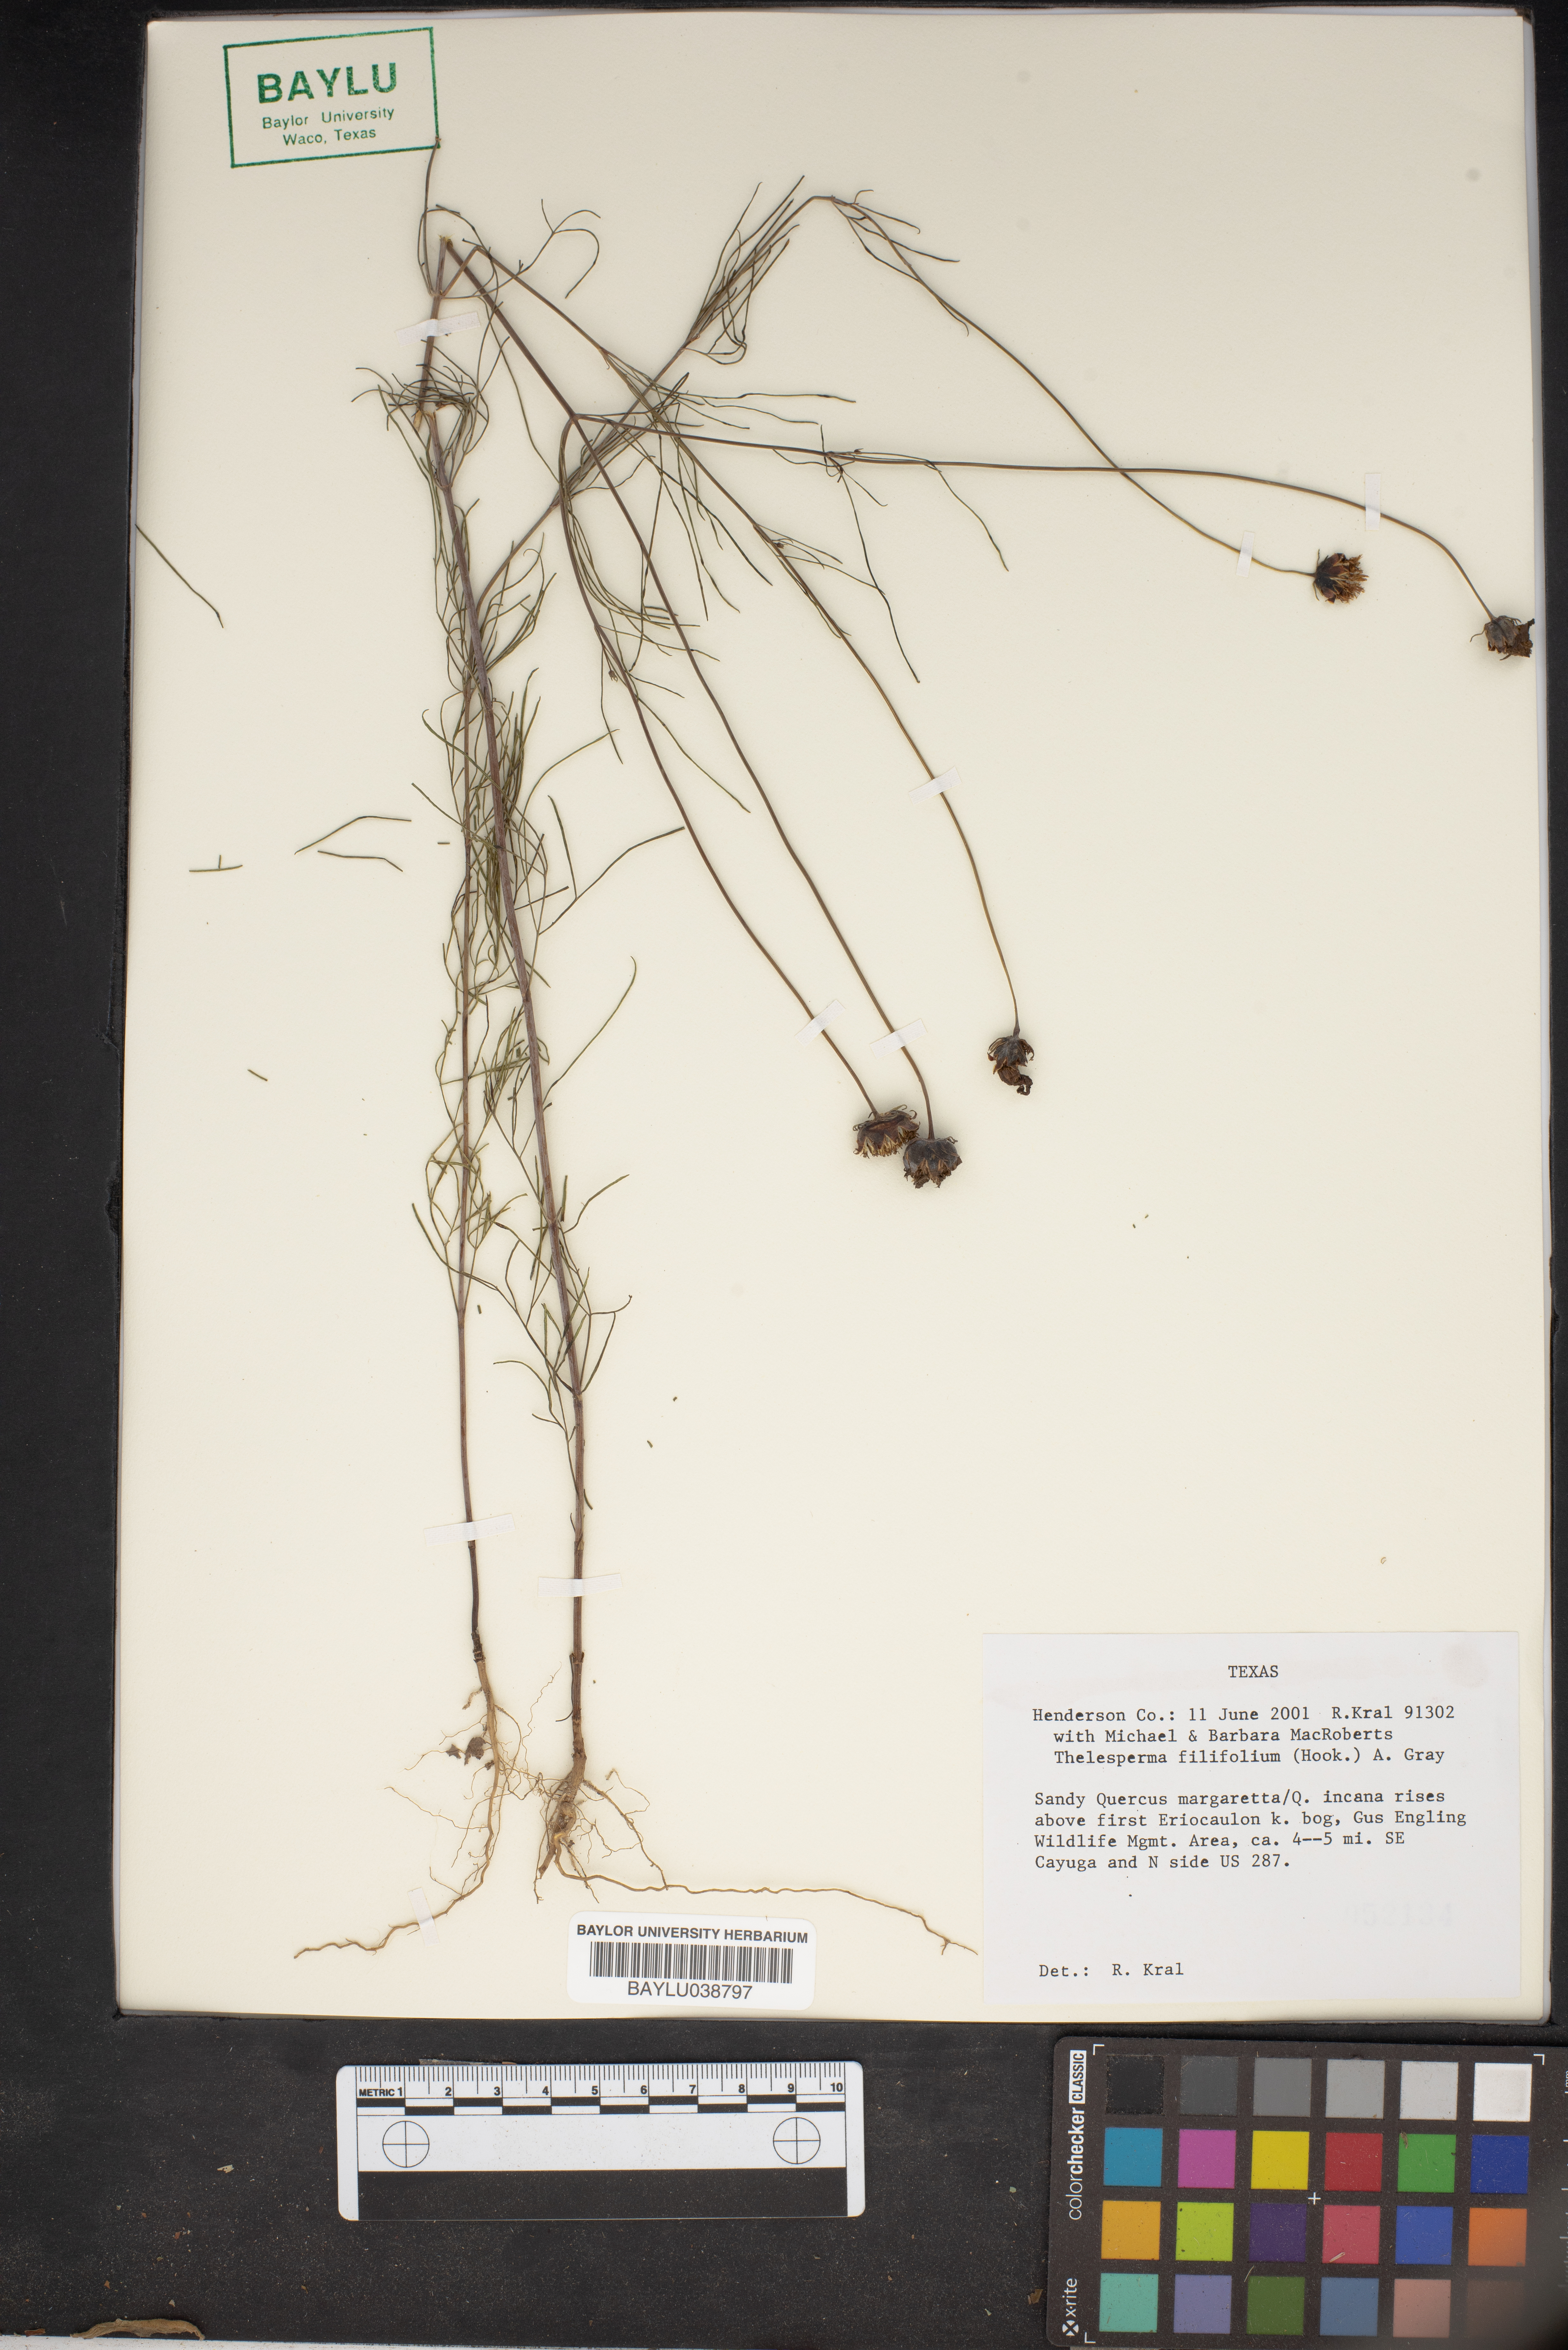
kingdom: Plantae
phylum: Tracheophyta
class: Magnoliopsida
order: Asterales
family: Asteraceae
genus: Thelesperma
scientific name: Thelesperma filifolium
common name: Stiff greenthread
